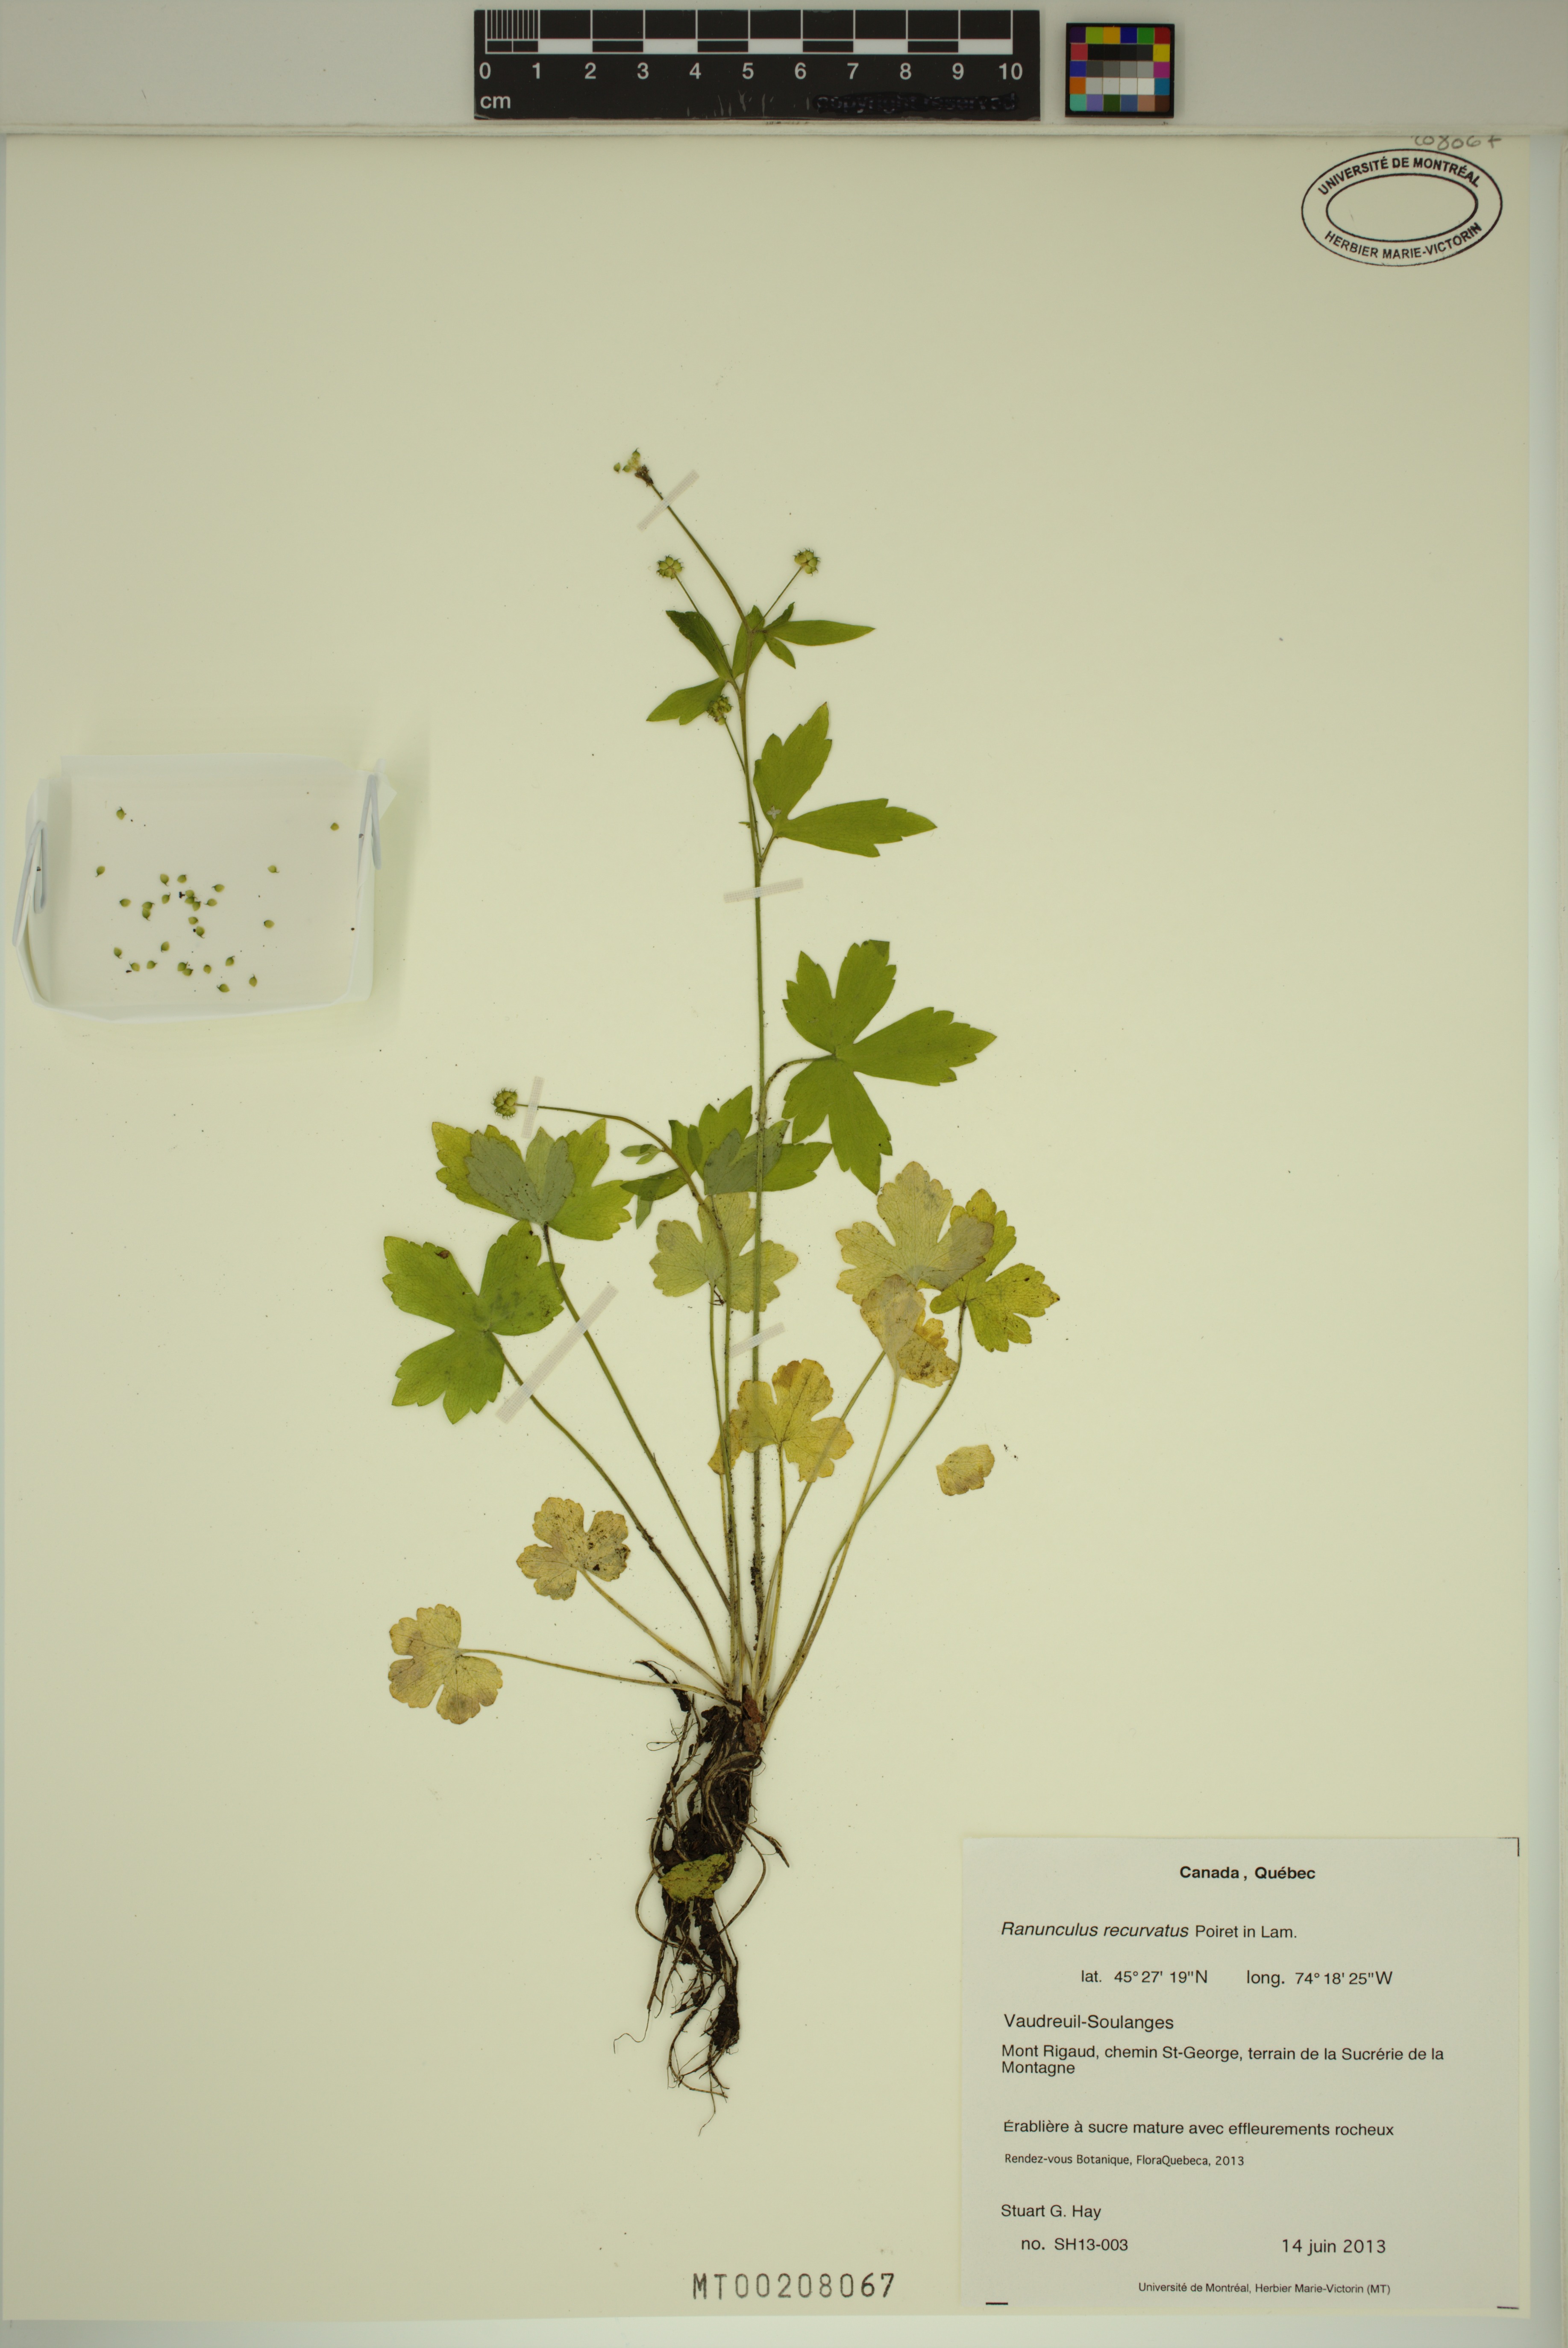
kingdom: Plantae
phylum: Tracheophyta
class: Magnoliopsida
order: Ranunculales
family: Ranunculaceae
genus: Ranunculus
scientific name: Ranunculus recurvatus
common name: Blisterwort
